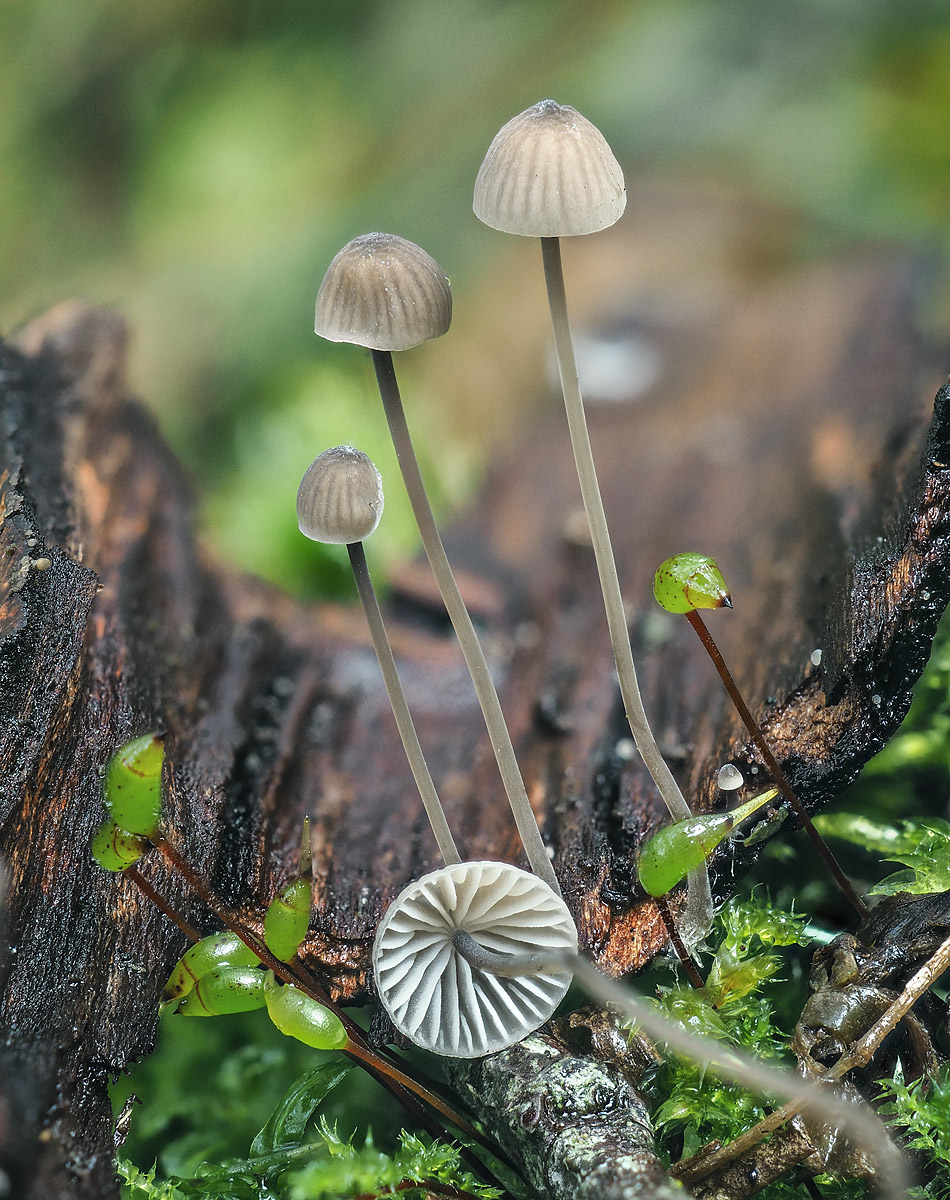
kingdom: Fungi
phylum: Basidiomycota
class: Agaricomycetes
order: Agaricales
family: Mycenaceae
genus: Mycena
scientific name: Mycena mirata
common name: krat-huesvamp
